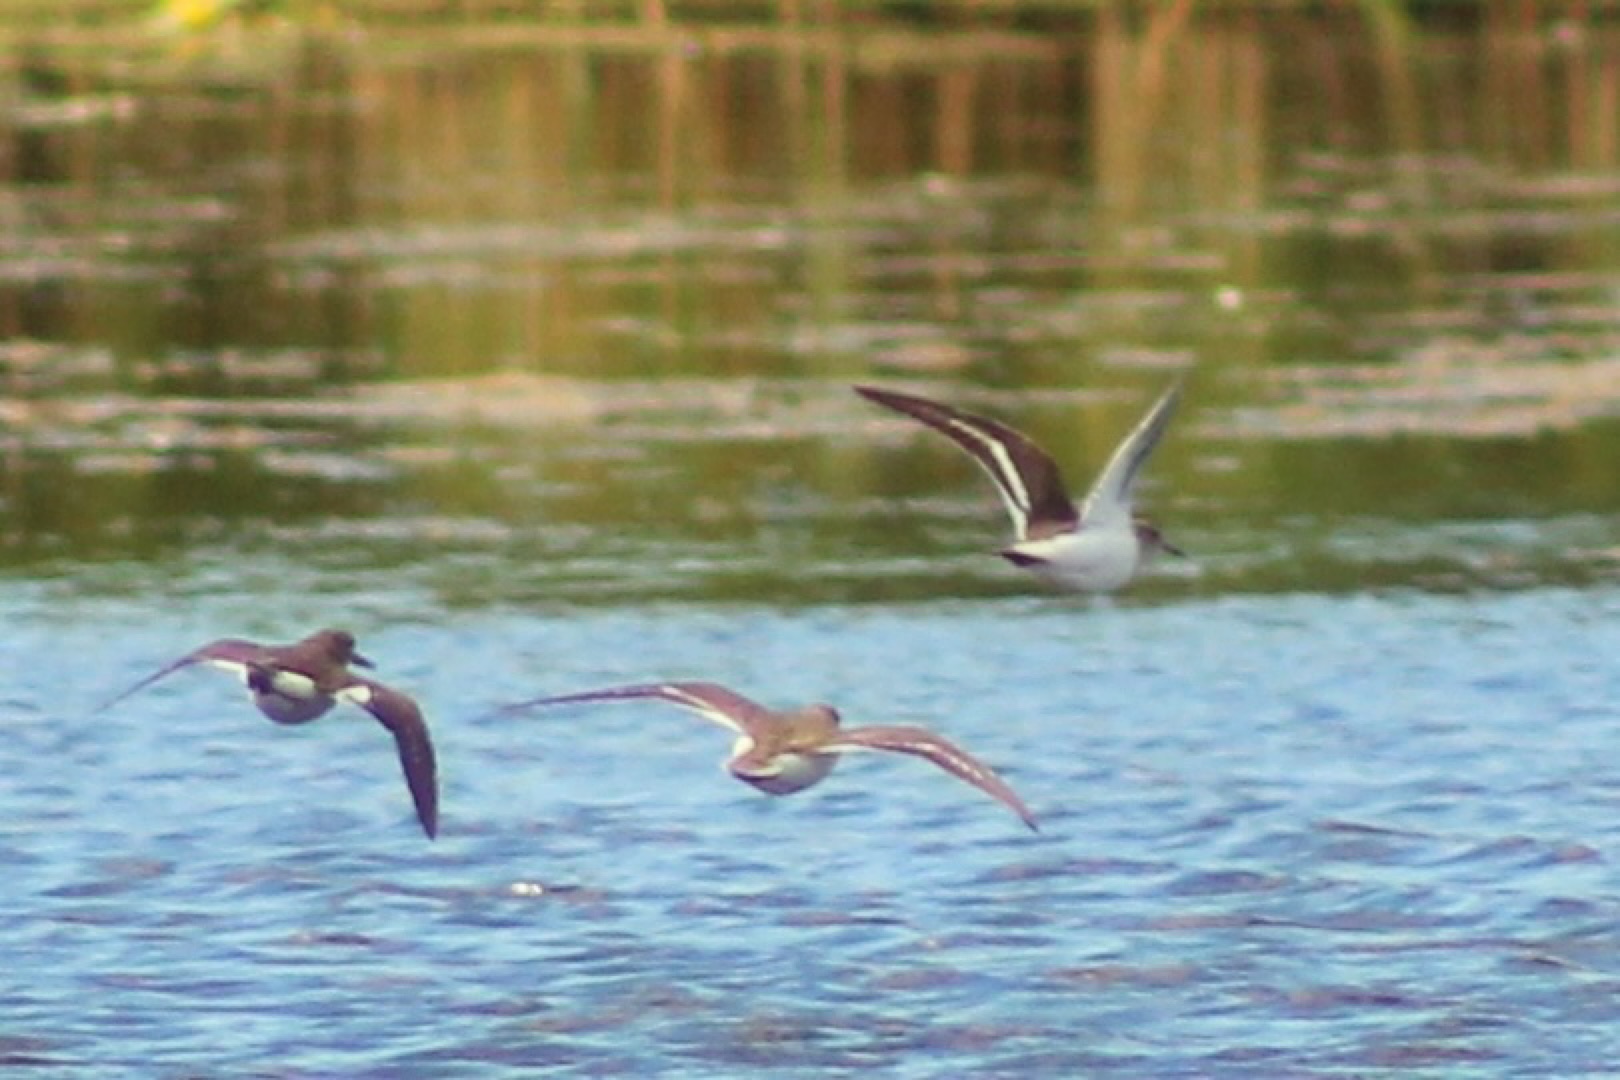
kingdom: Animalia
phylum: Chordata
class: Aves
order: Charadriiformes
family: Scolopacidae
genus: Actitis
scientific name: Actitis hypoleucos
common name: Mudderklire
